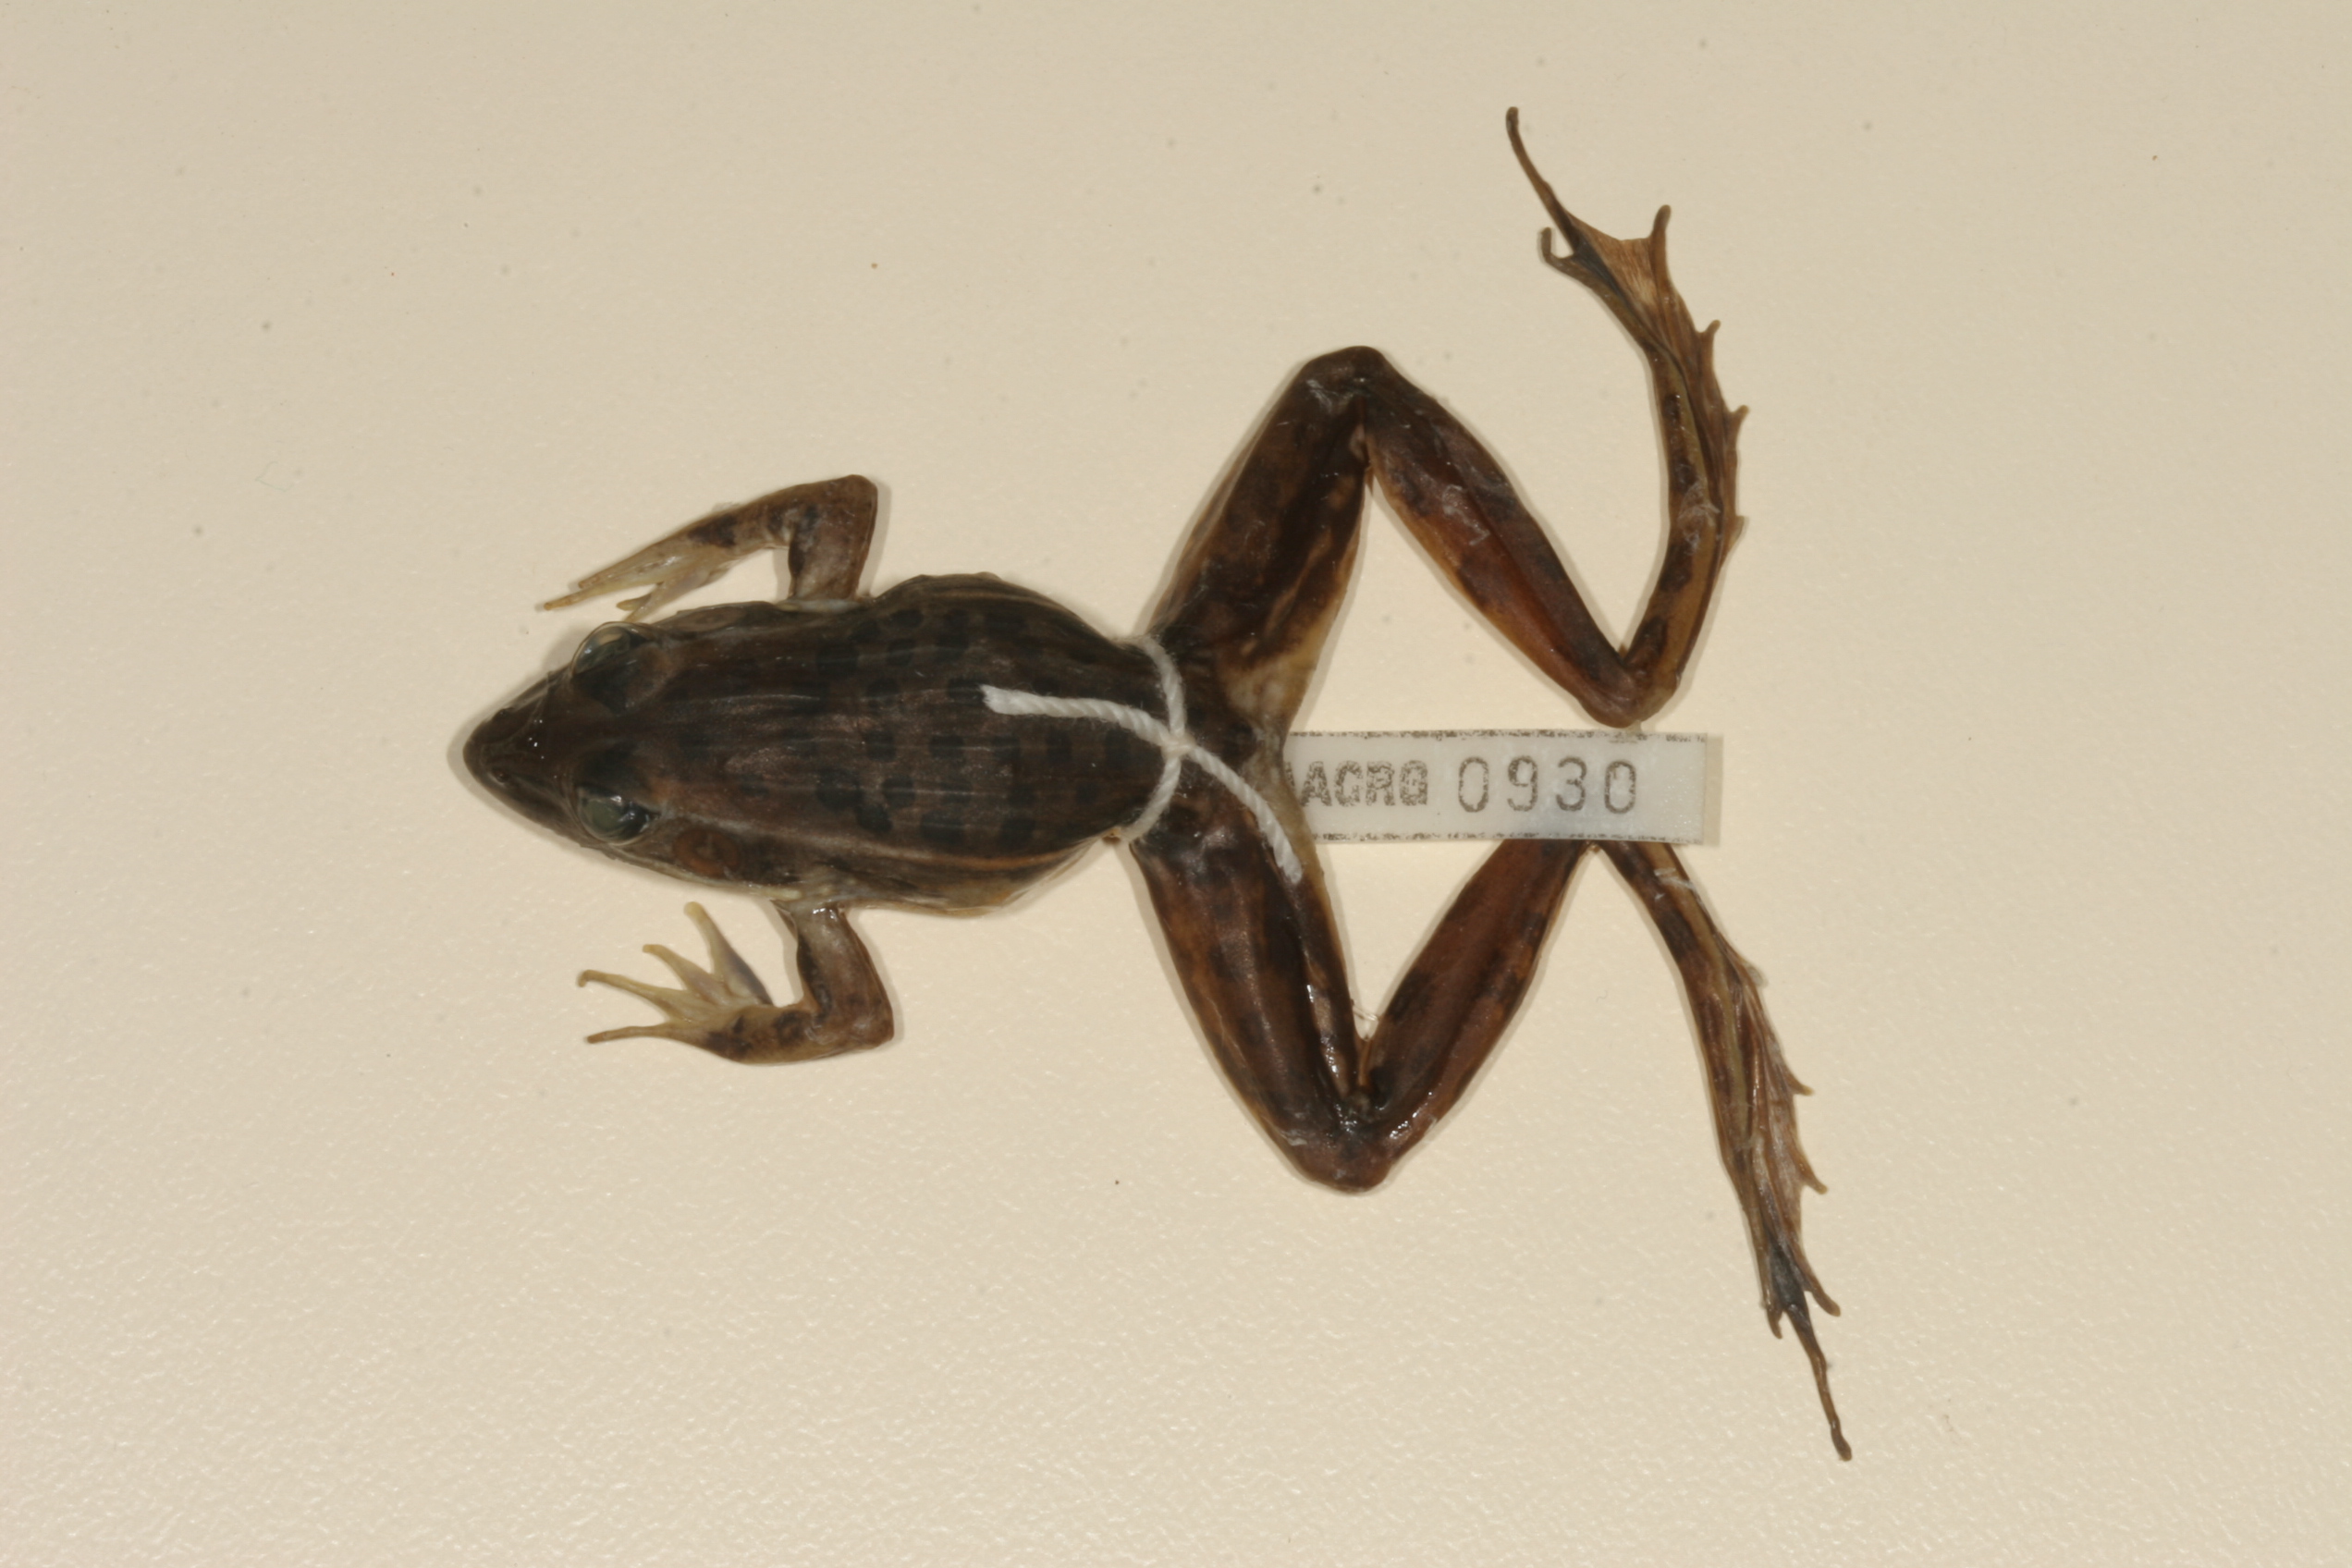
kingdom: Animalia
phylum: Chordata
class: Amphibia
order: Anura
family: Ptychadenidae
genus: Ptychadena
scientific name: Ptychadena subpunctata
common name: Bocage's grassland frog
